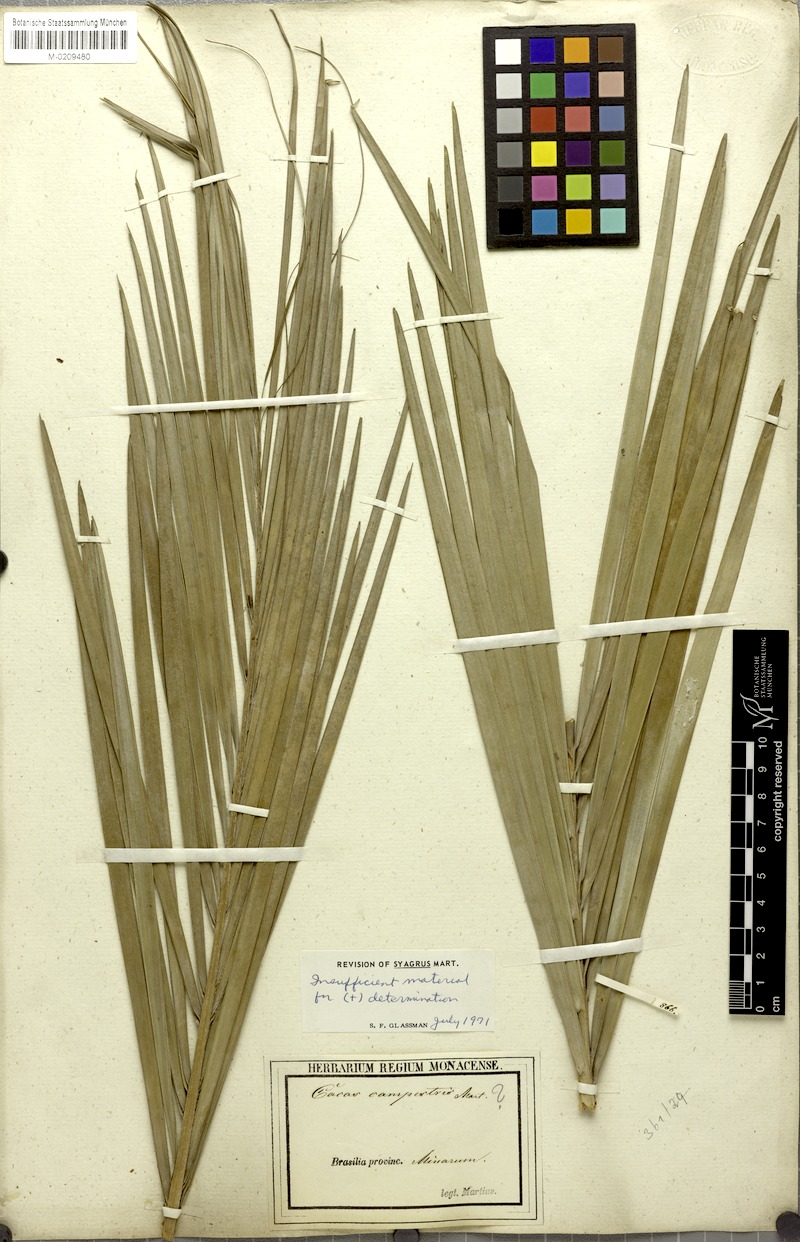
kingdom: Plantae
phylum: Tracheophyta
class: Liliopsida
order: Arecales
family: Arecaceae
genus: Syagrus
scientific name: Syagrus
